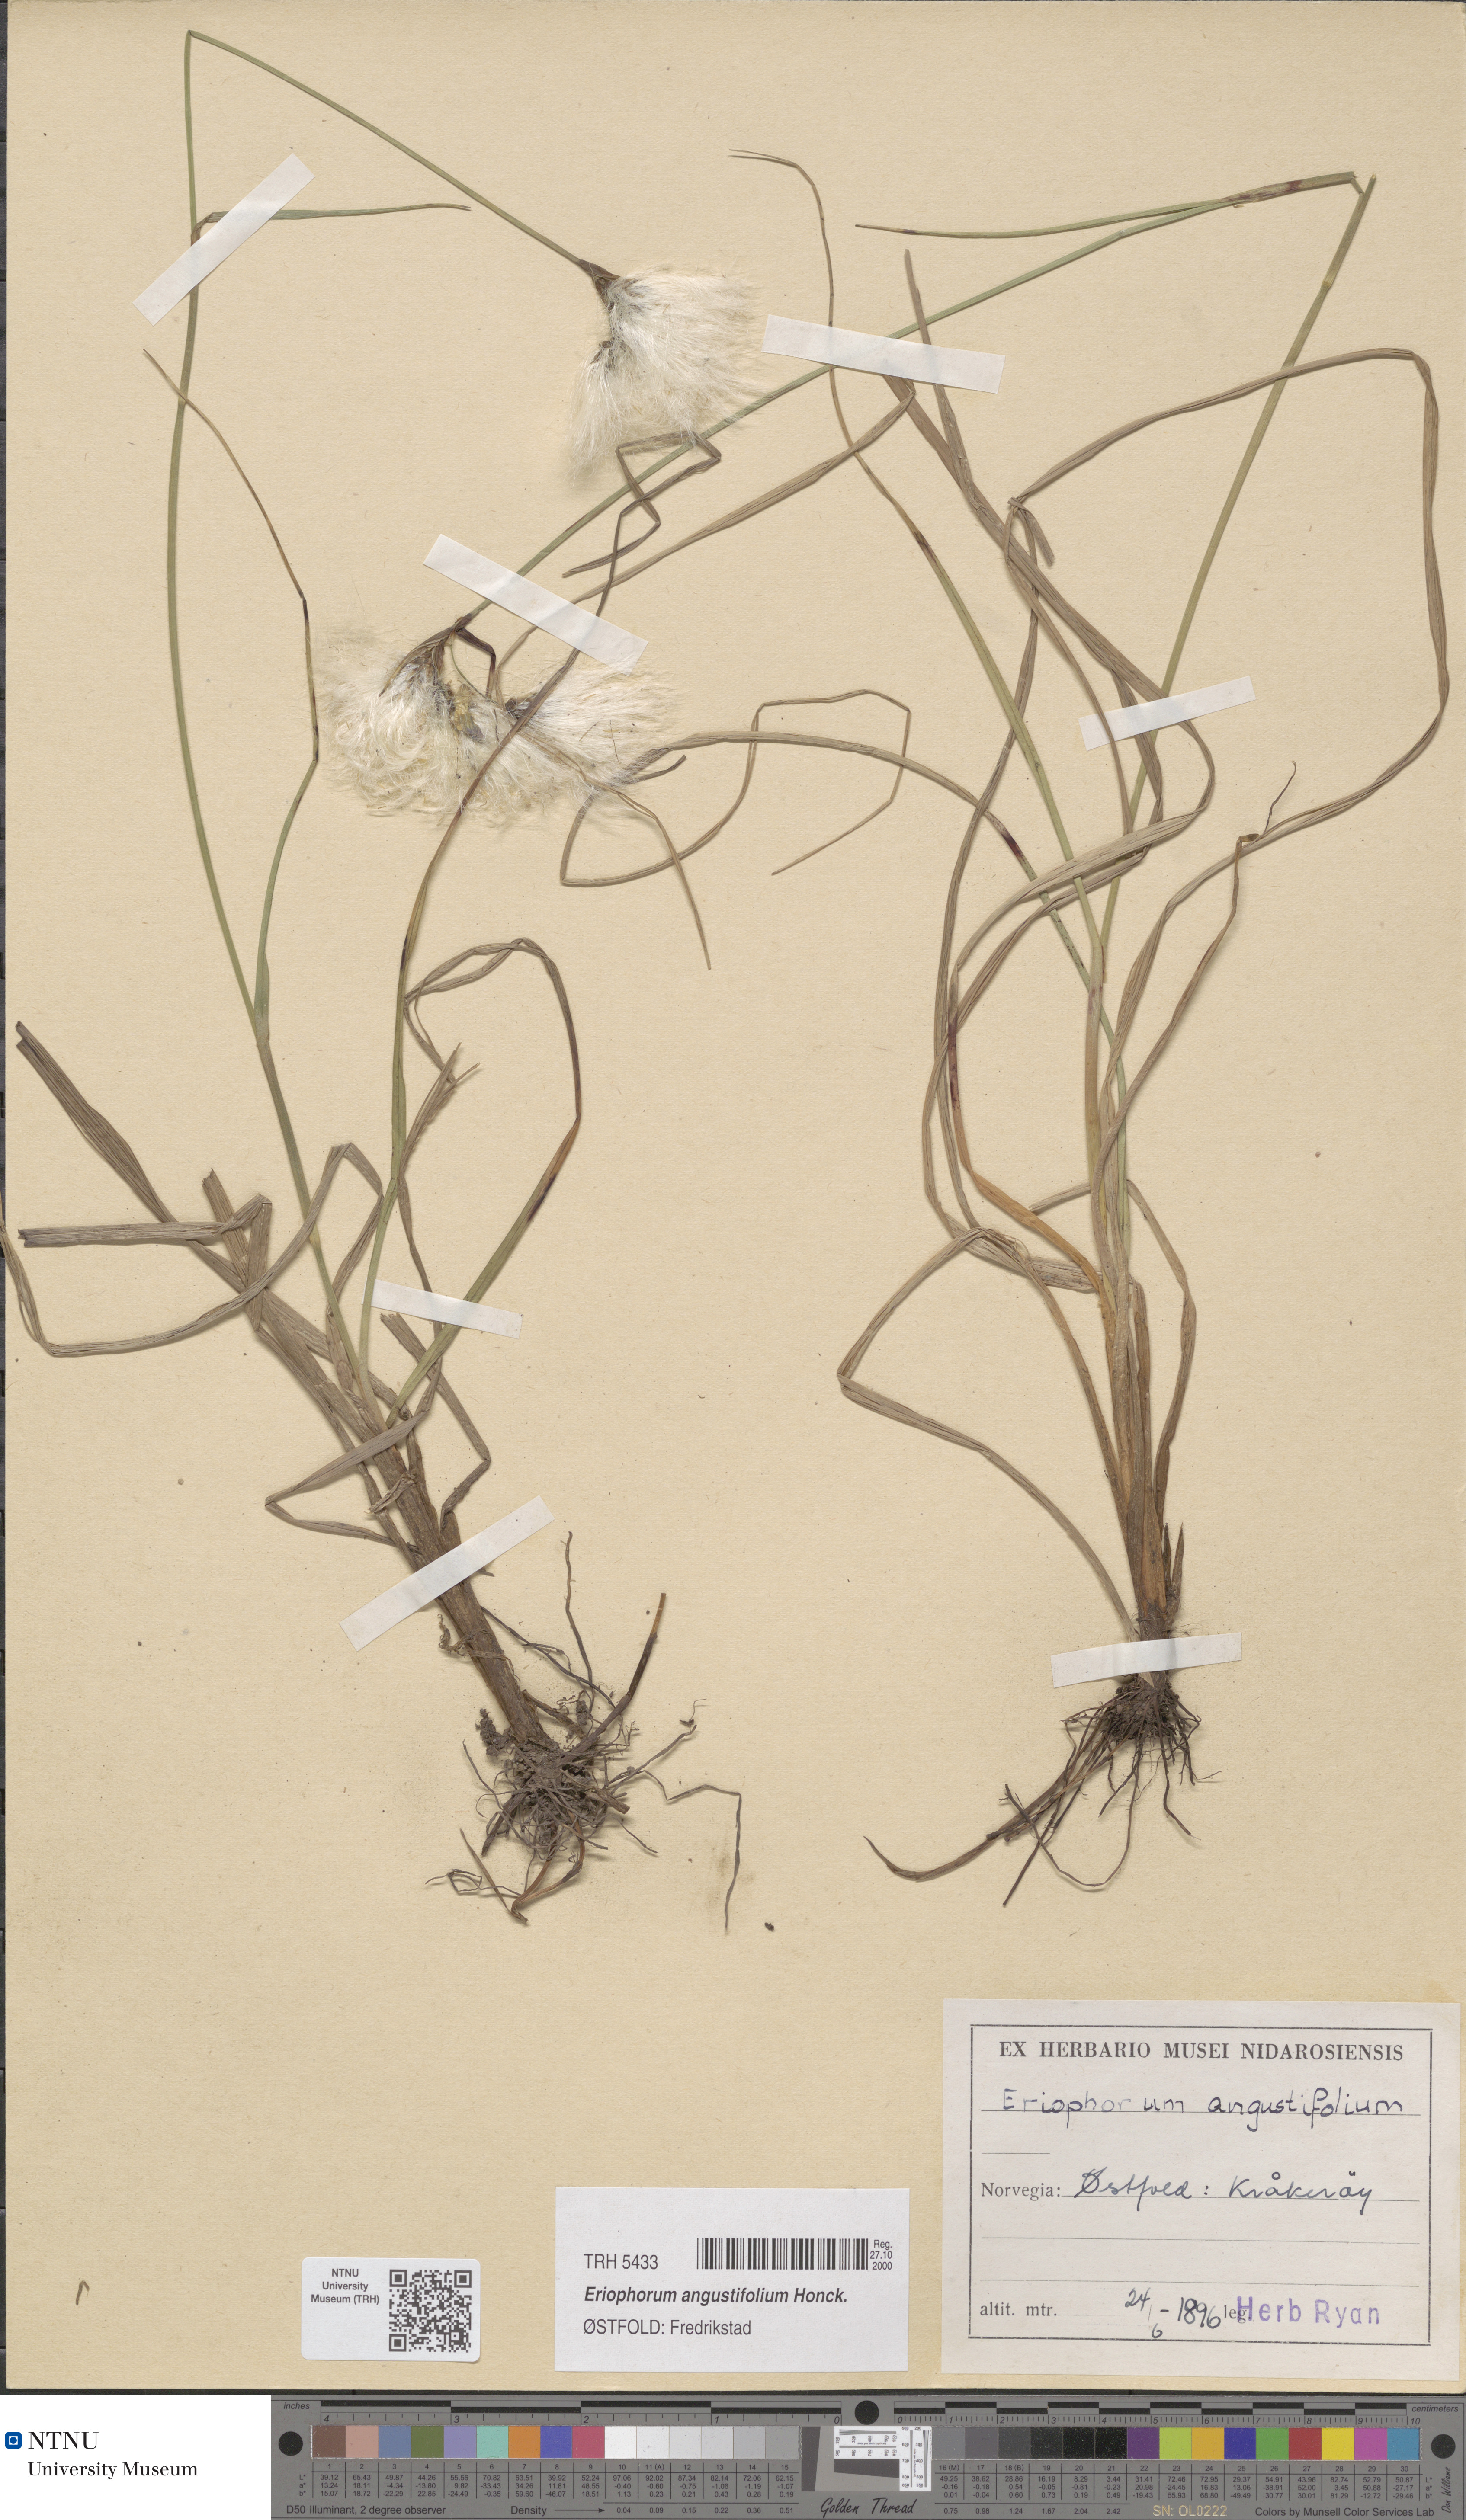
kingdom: Plantae
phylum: Tracheophyta
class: Liliopsida
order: Poales
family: Cyperaceae
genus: Eriophorum
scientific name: Eriophorum angustifolium
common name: Common cottongrass
